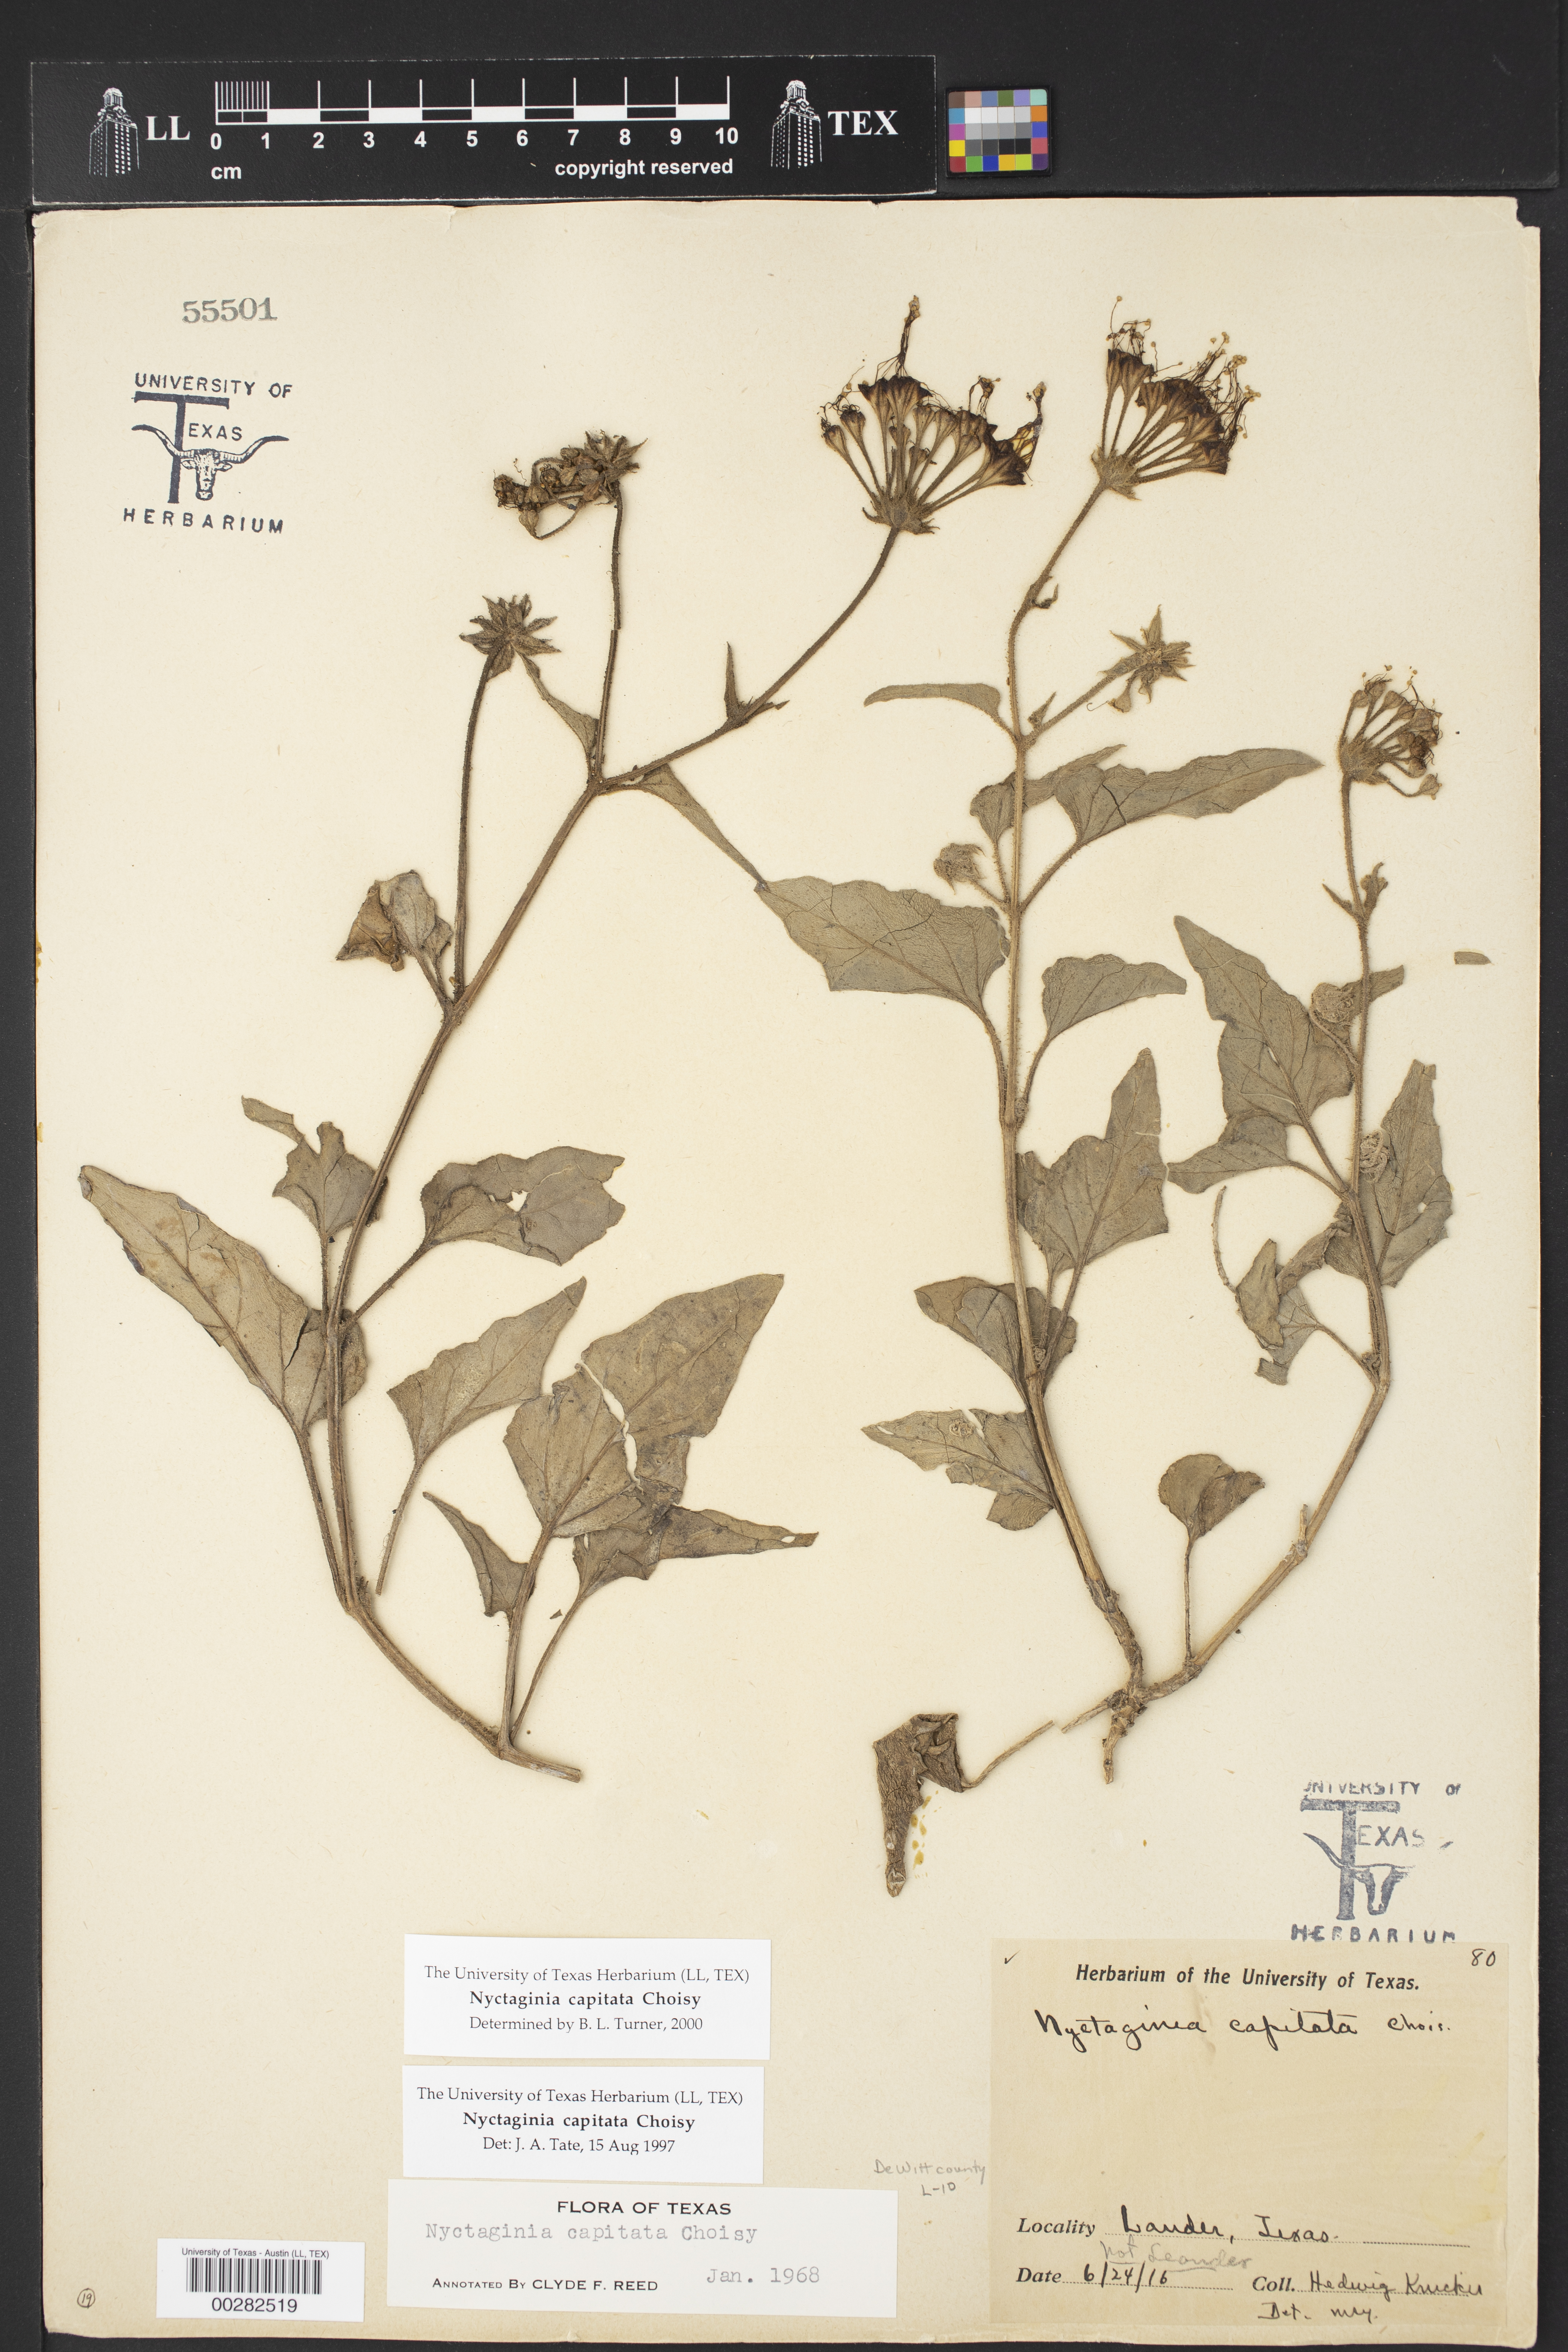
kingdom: Plantae
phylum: Tracheophyta
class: Magnoliopsida
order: Caryophyllales
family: Nyctaginaceae
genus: Nyctaginia
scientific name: Nyctaginia capitata
